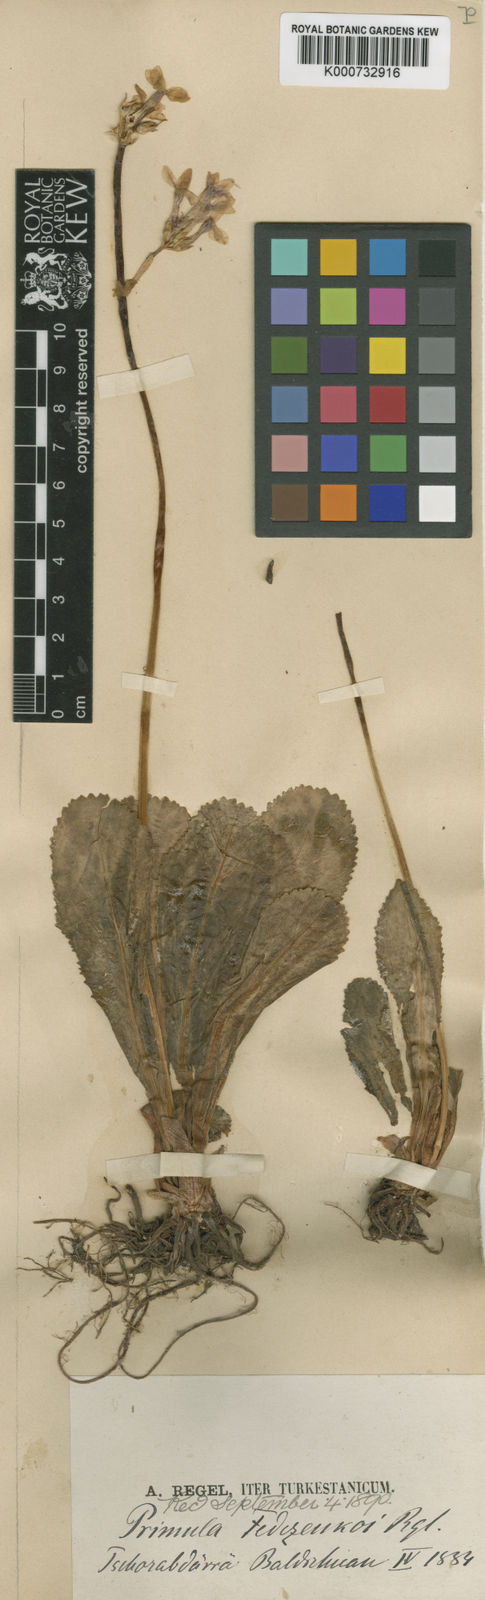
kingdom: Plantae
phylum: Tracheophyta
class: Magnoliopsida
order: Ericales
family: Primulaceae
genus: Primula
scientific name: Primula
